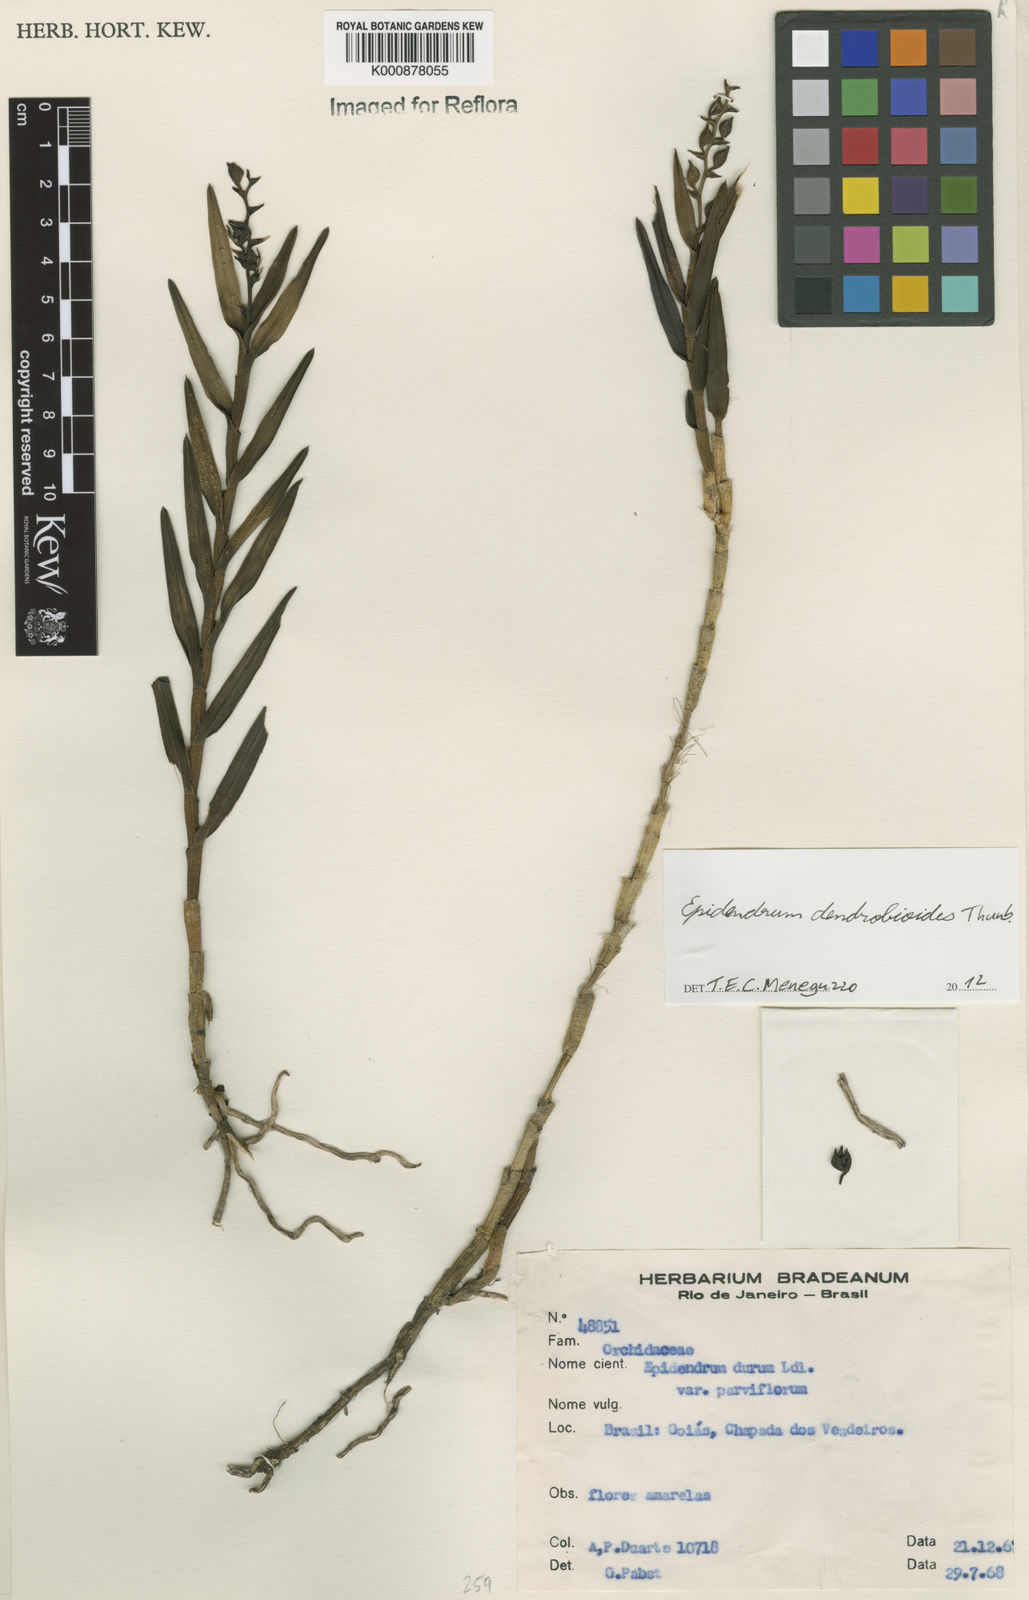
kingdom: Plantae
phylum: Tracheophyta
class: Liliopsida
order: Asparagales
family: Orchidaceae
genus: Epidendrum
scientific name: Epidendrum dendrobioides
